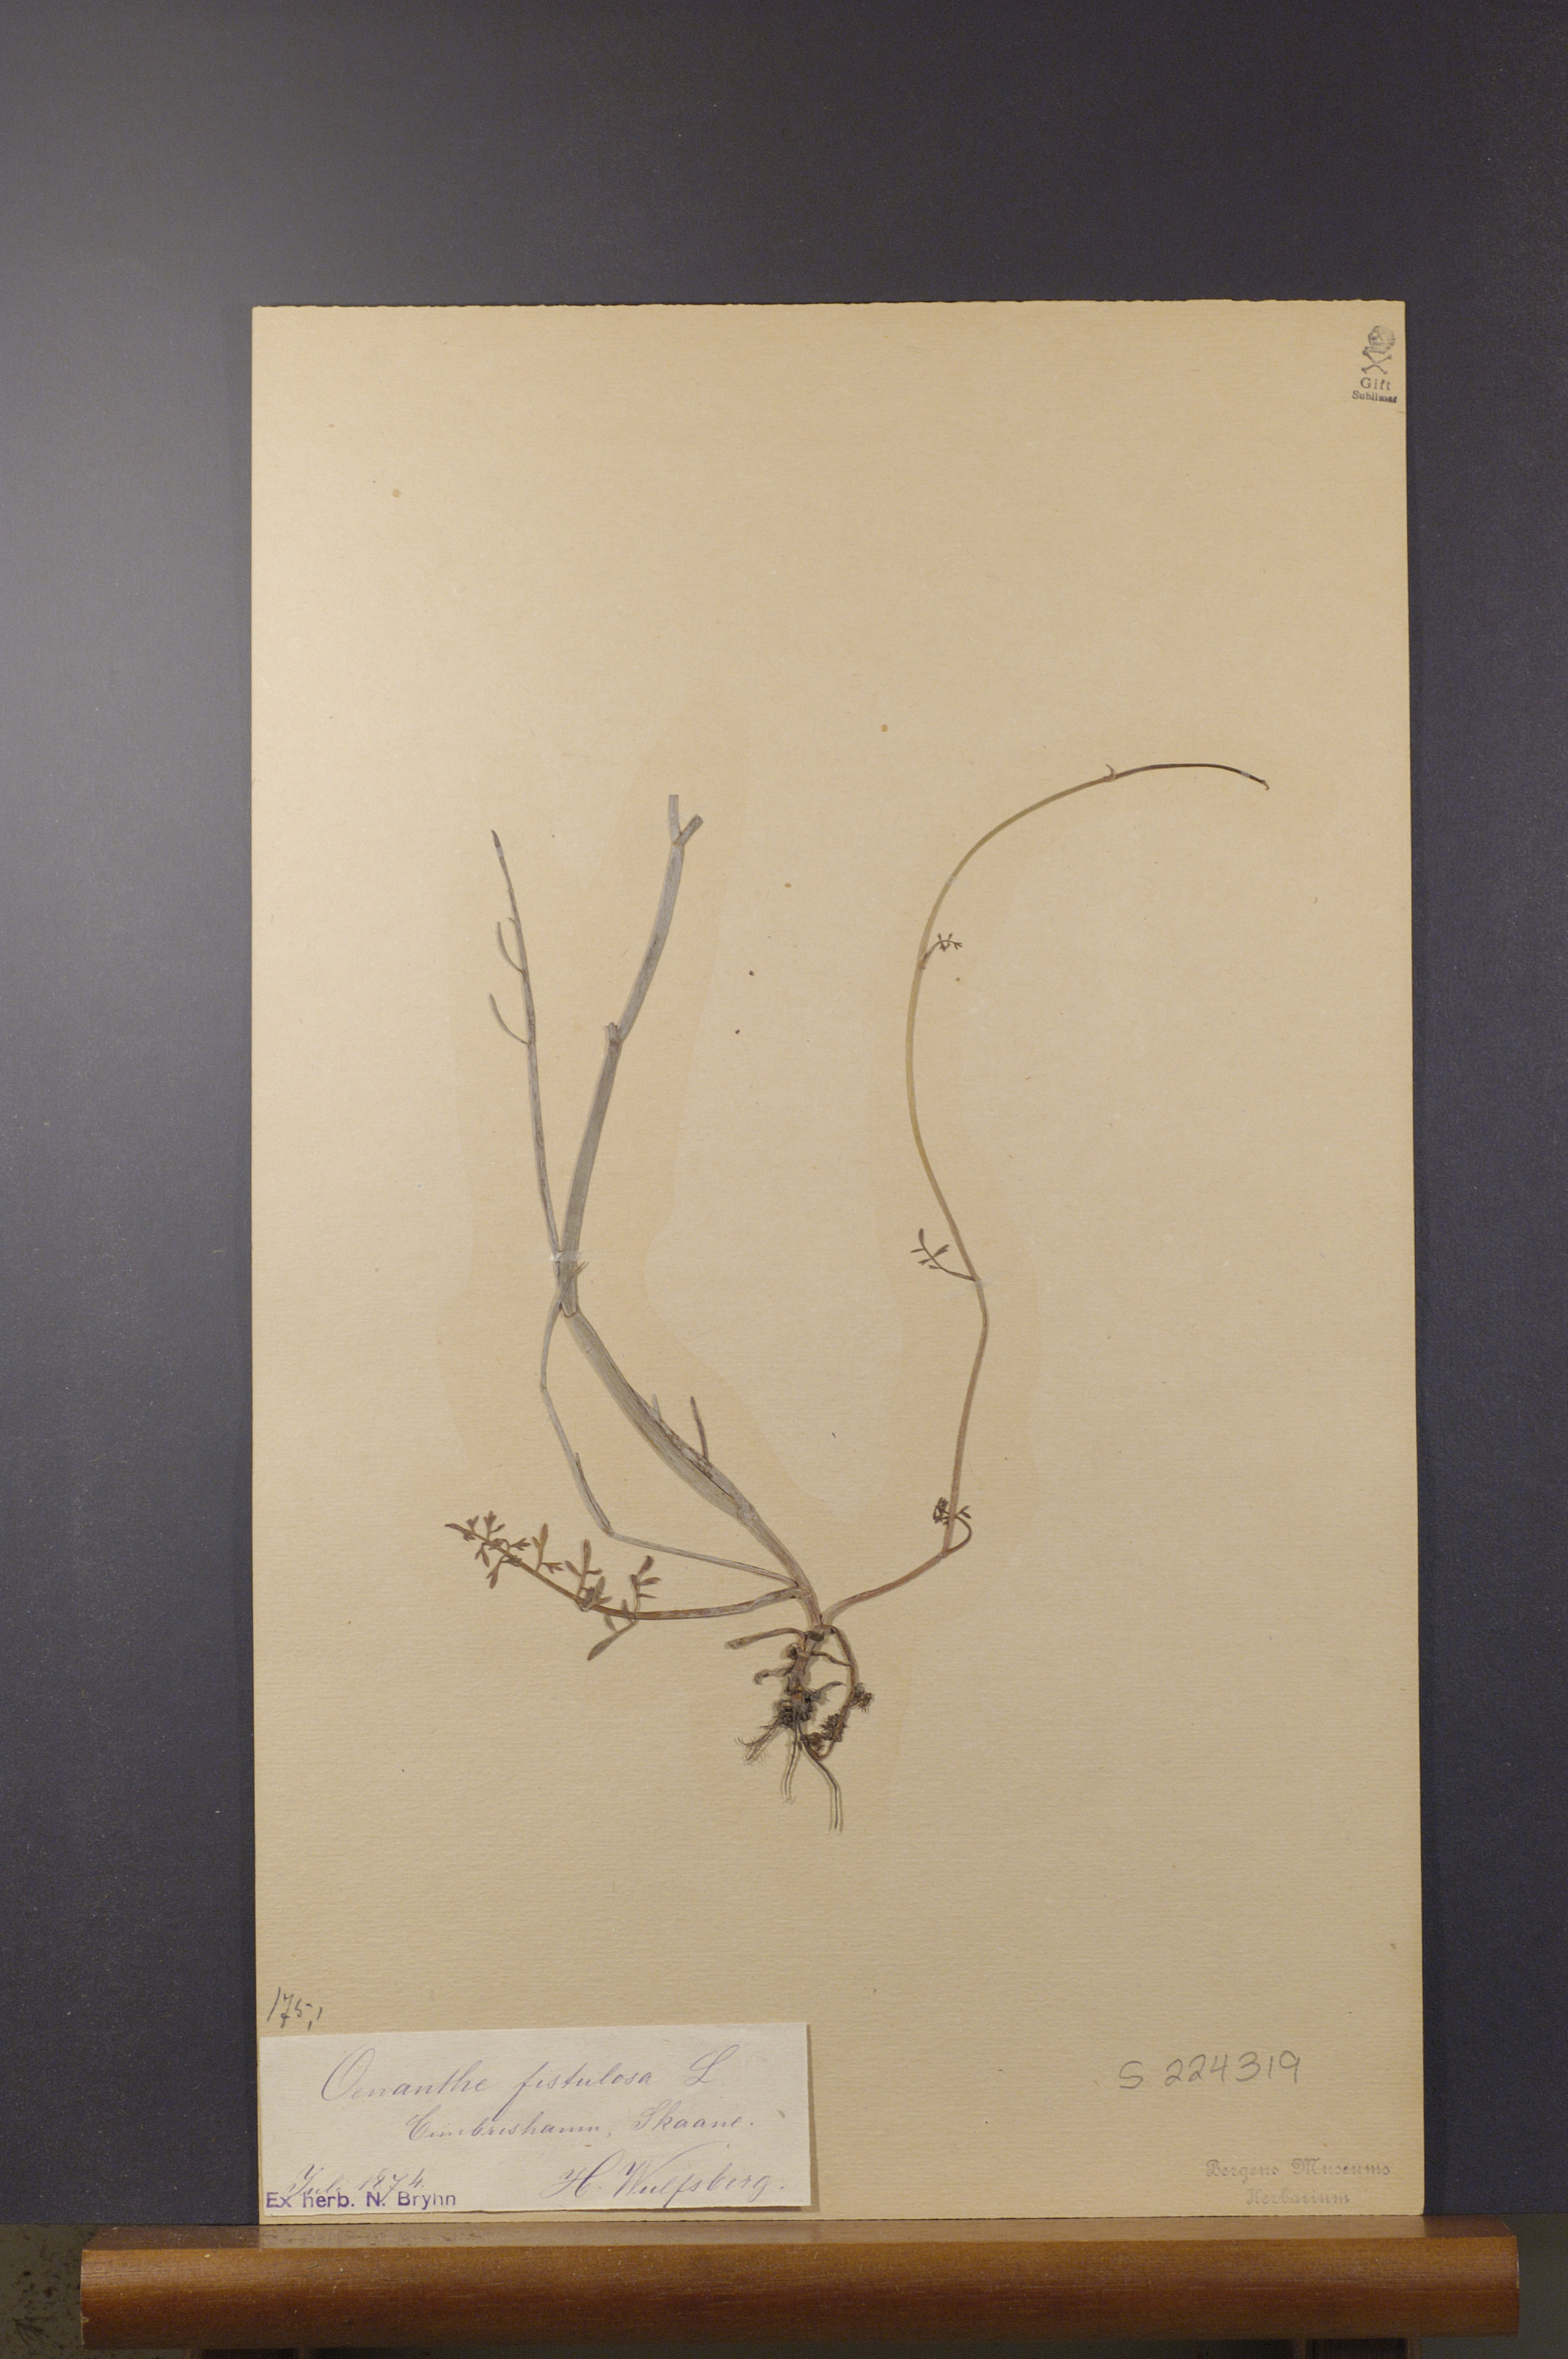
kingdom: Plantae
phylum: Tracheophyta
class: Magnoliopsida
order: Apiales
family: Apiaceae
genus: Oenanthe
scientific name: Oenanthe fistulosa
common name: Tubular water-dropwort
